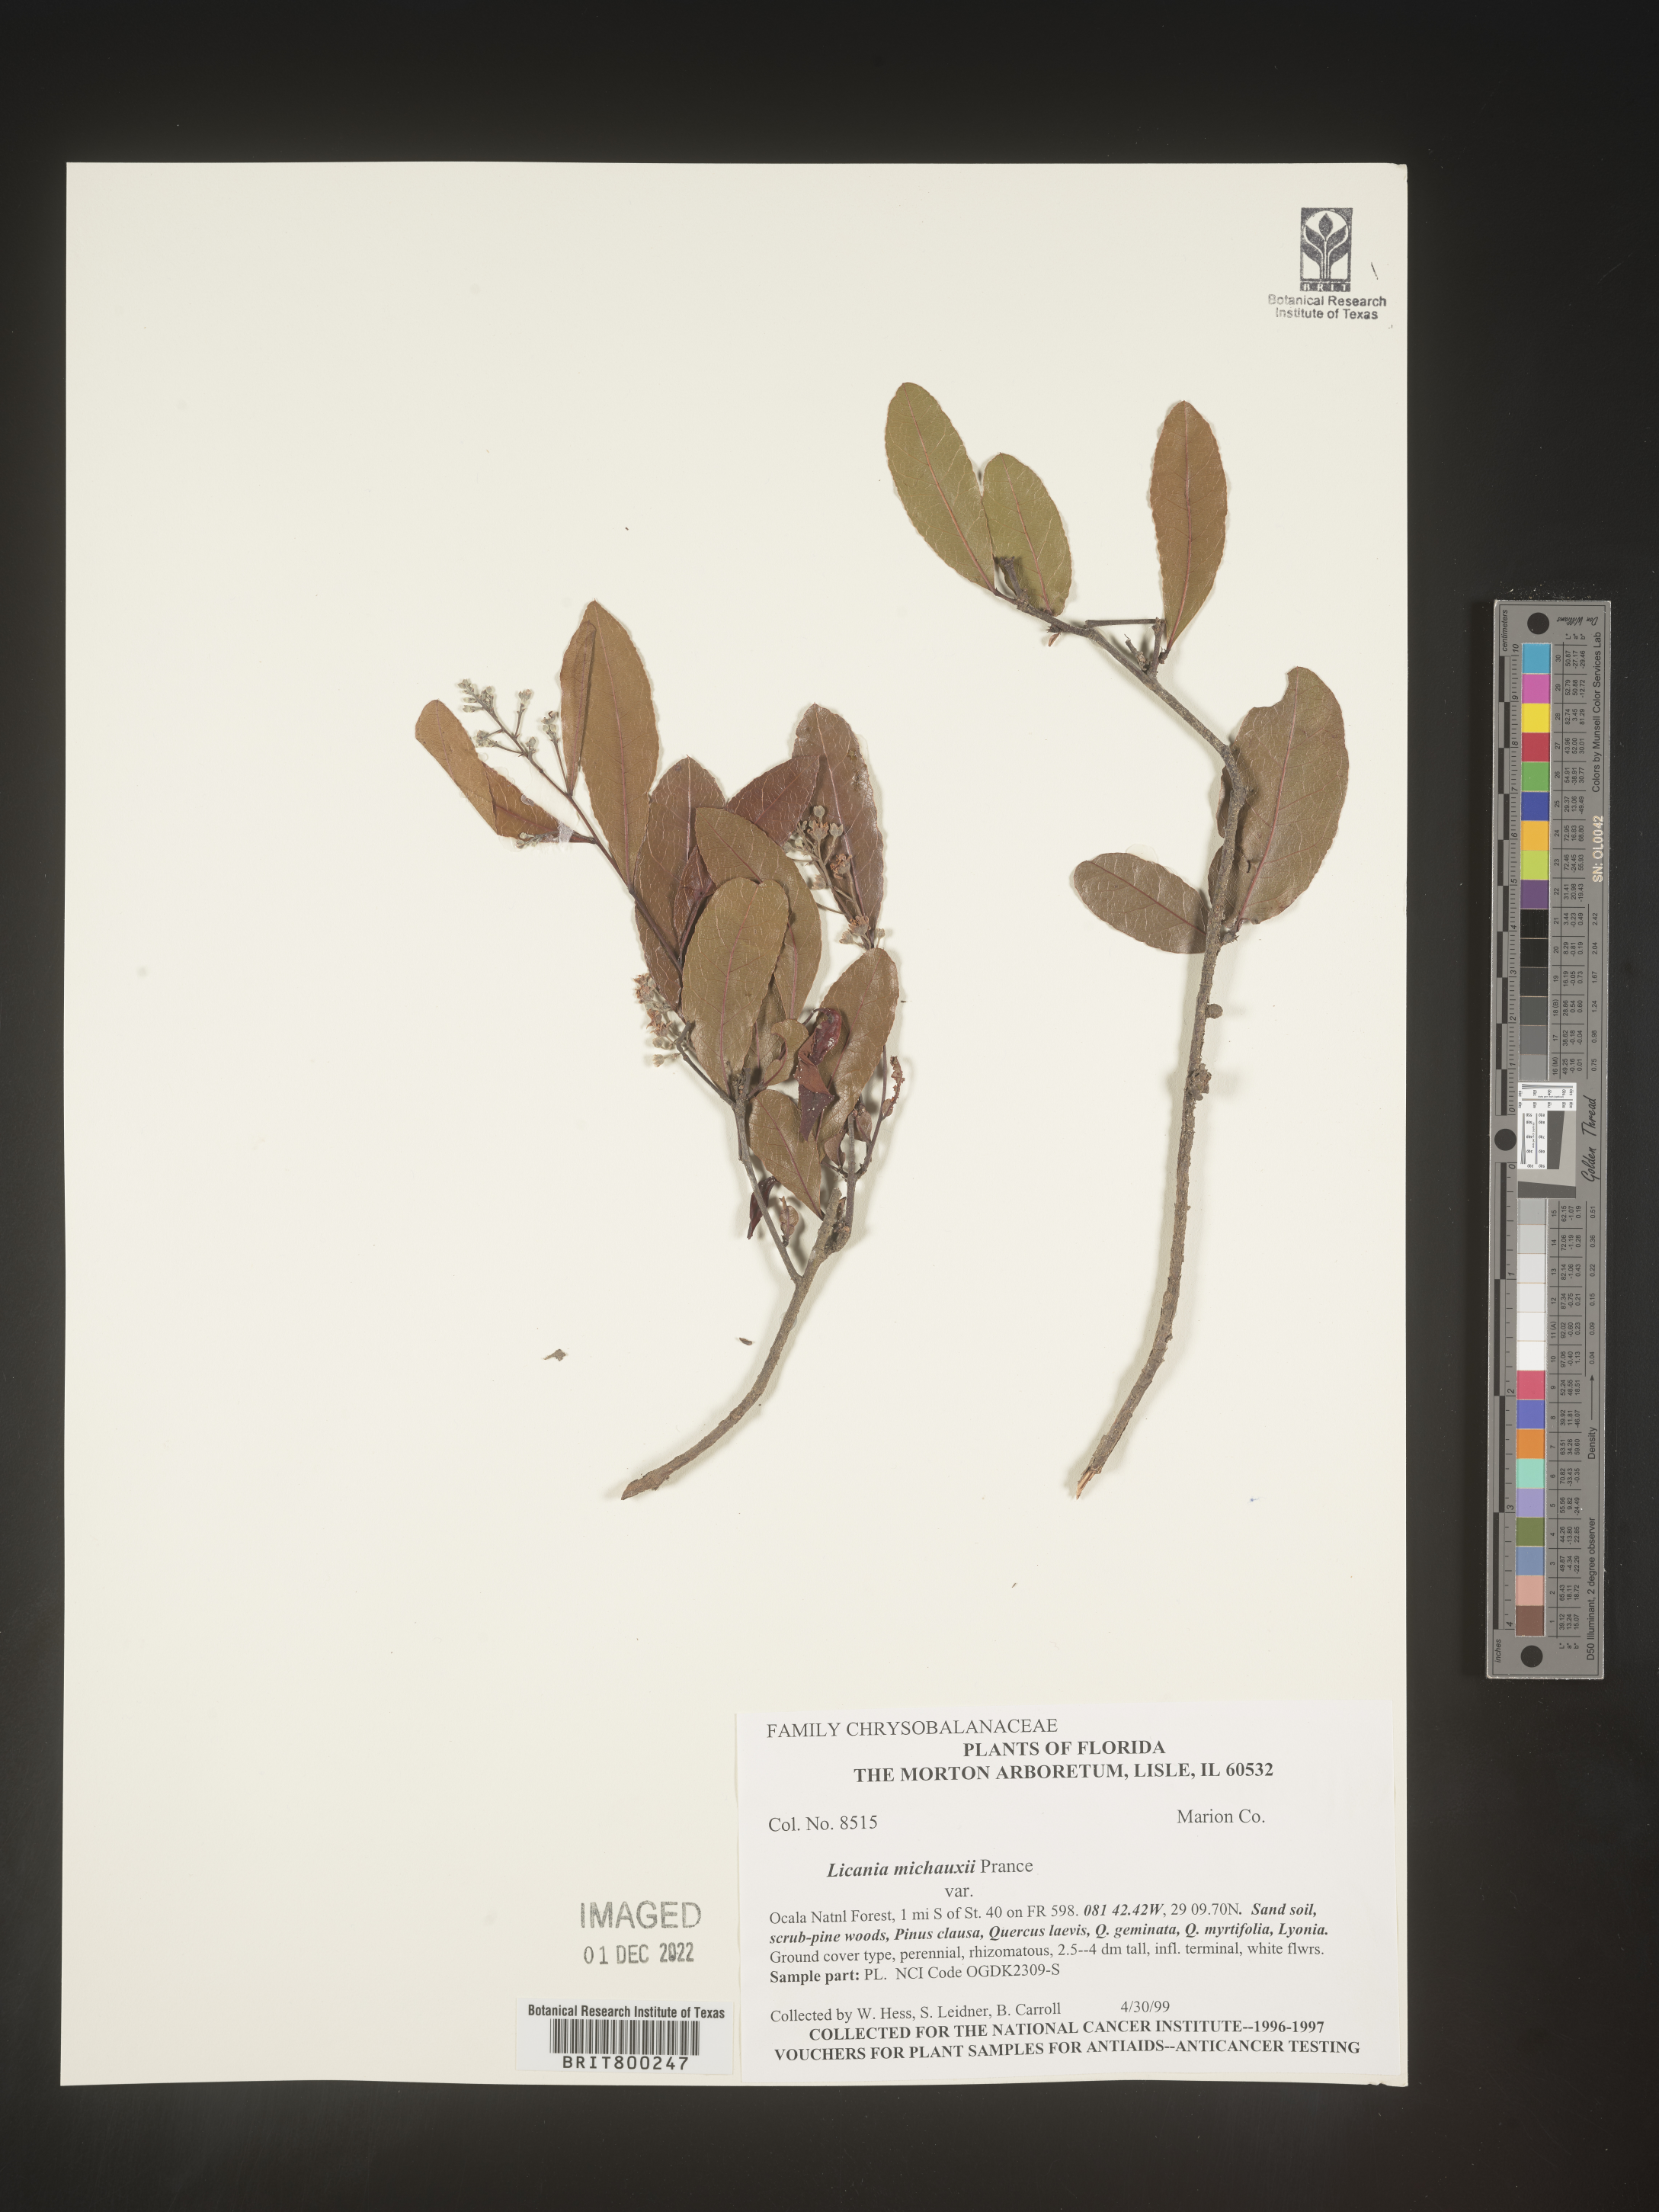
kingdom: Plantae
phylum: Tracheophyta
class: Magnoliopsida
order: Malpighiales
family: Chrysobalanaceae
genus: Geobalanus
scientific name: Geobalanus oblongifolius
